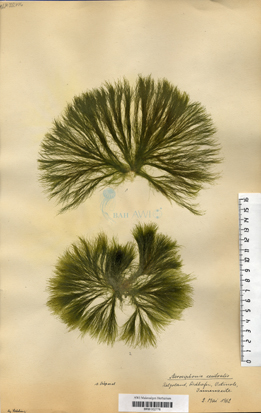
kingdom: Plantae
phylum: Chlorophyta
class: Ulvophyceae
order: Ulotrichales
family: Ulotrichaceae
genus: Acrosiphonia
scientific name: Acrosiphonia arcta
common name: Green tarantula weed
